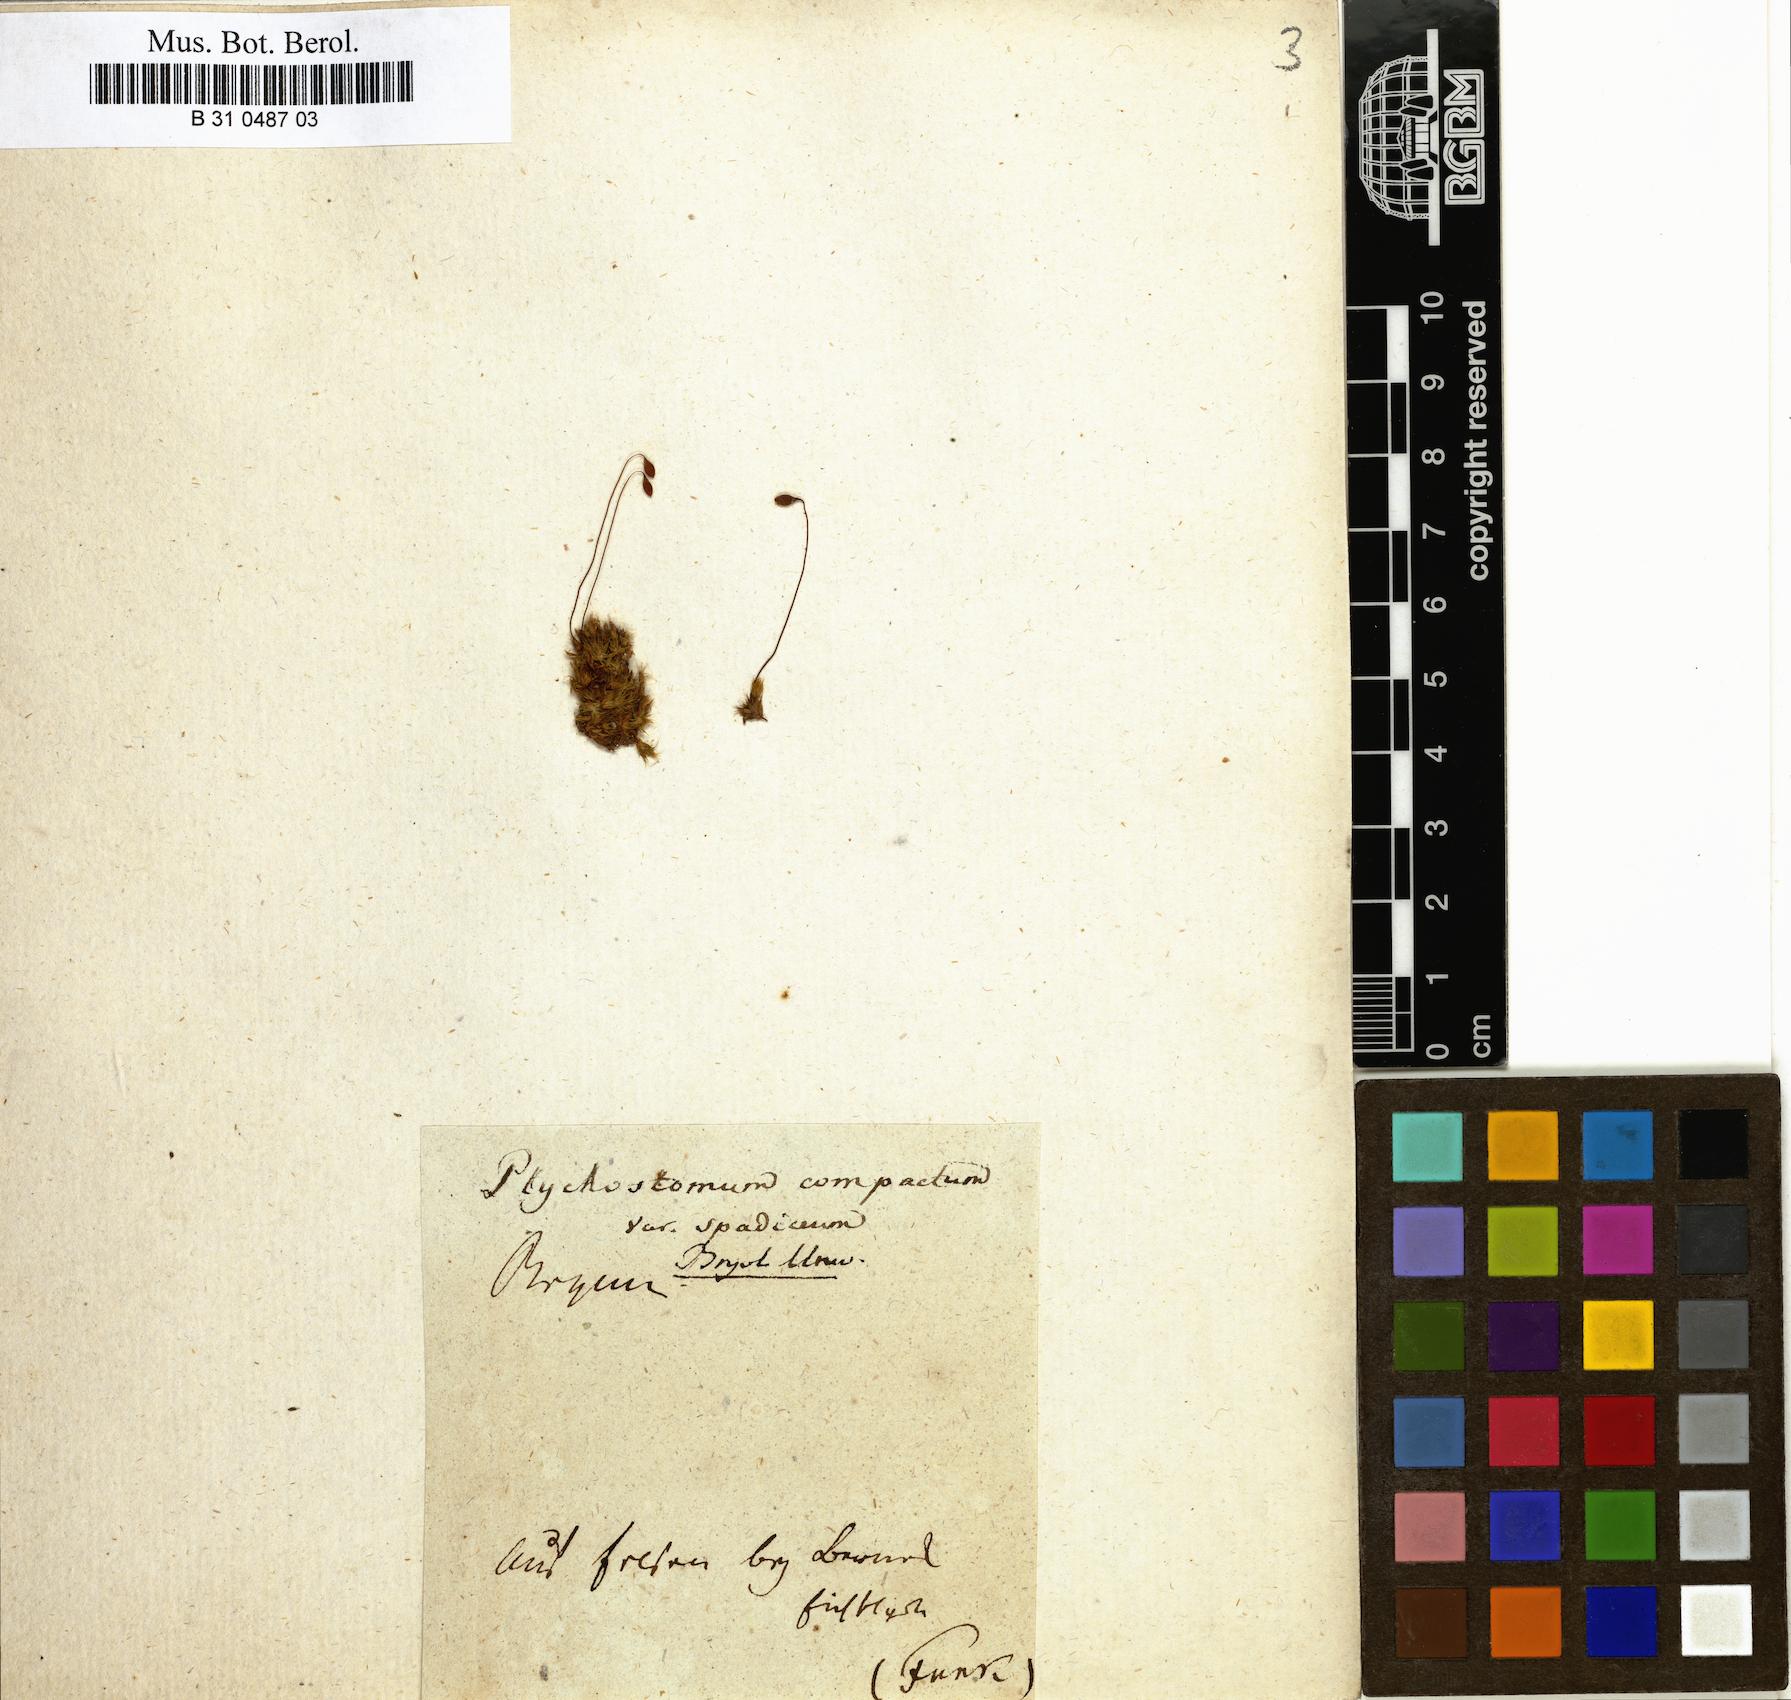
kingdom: Plantae
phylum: Bryophyta
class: Bryopsida
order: Bryales
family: Bryaceae
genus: Ptychostomum
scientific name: Ptychostomum compactum
